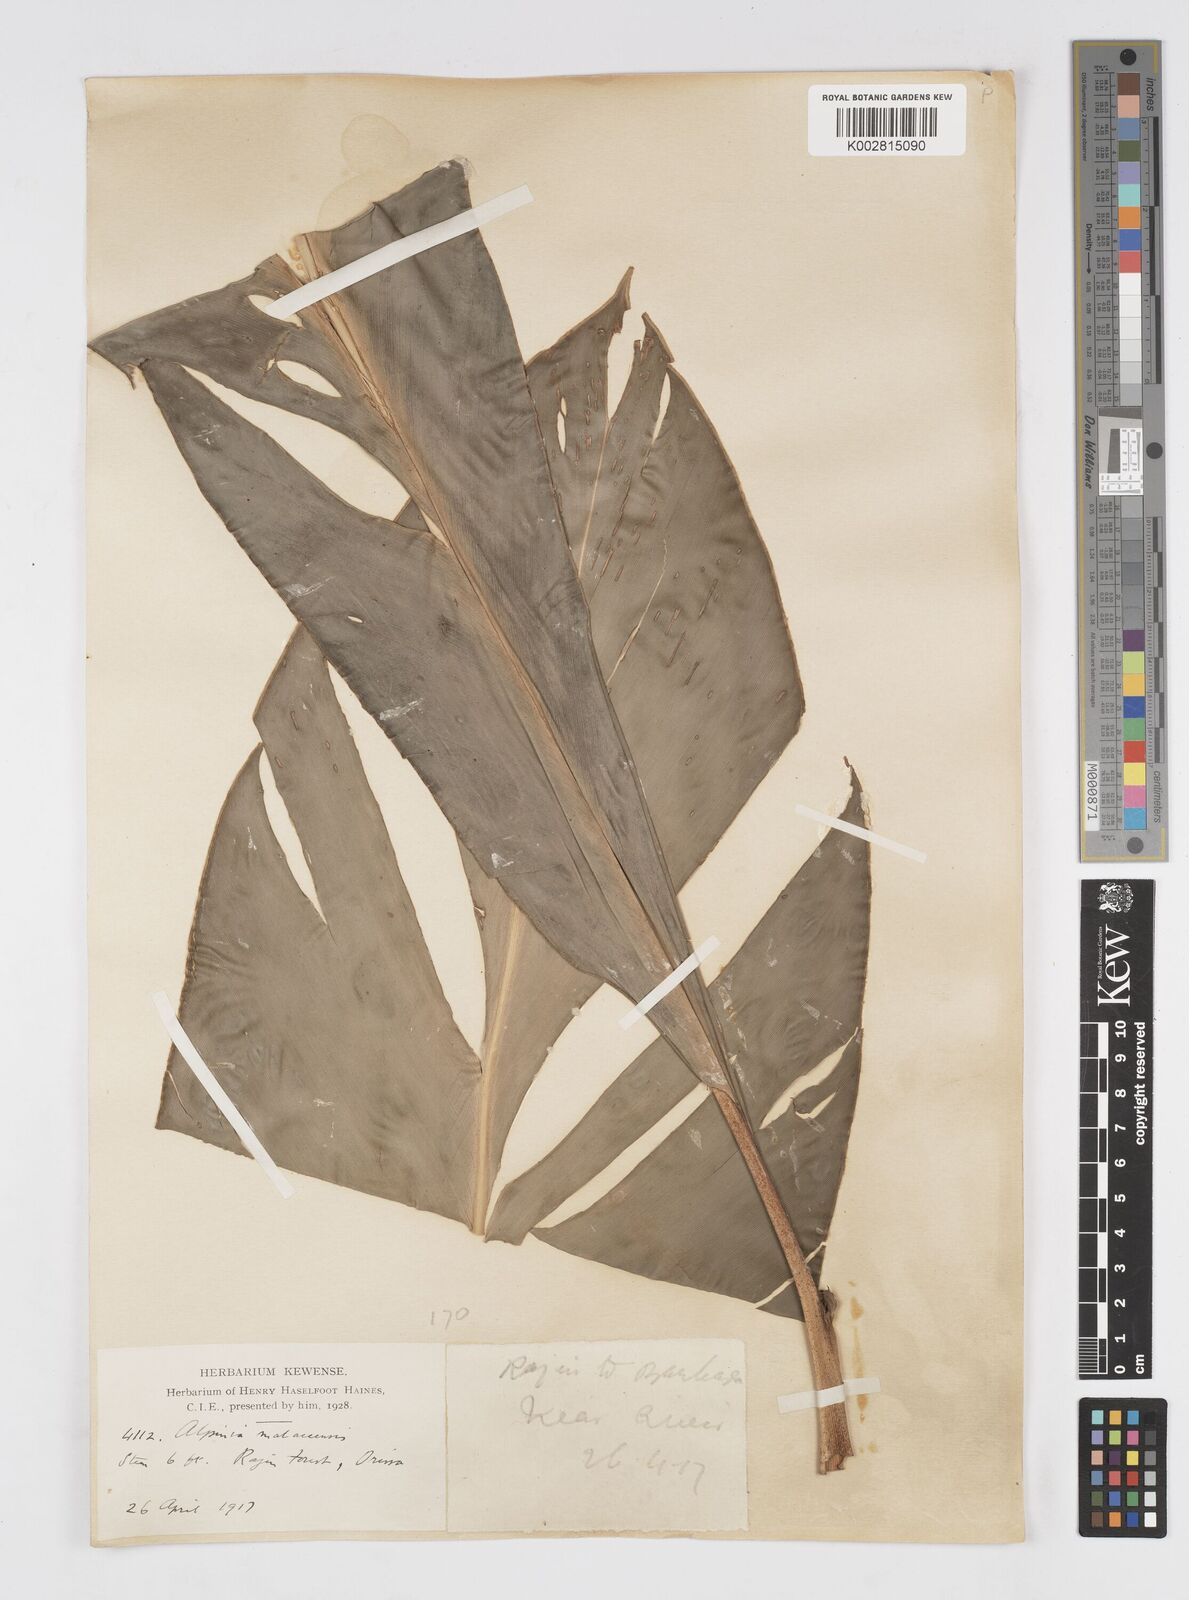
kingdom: Plantae
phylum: Tracheophyta
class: Liliopsida
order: Zingiberales
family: Zingiberaceae
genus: Alpinia
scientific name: Alpinia malaccensis
